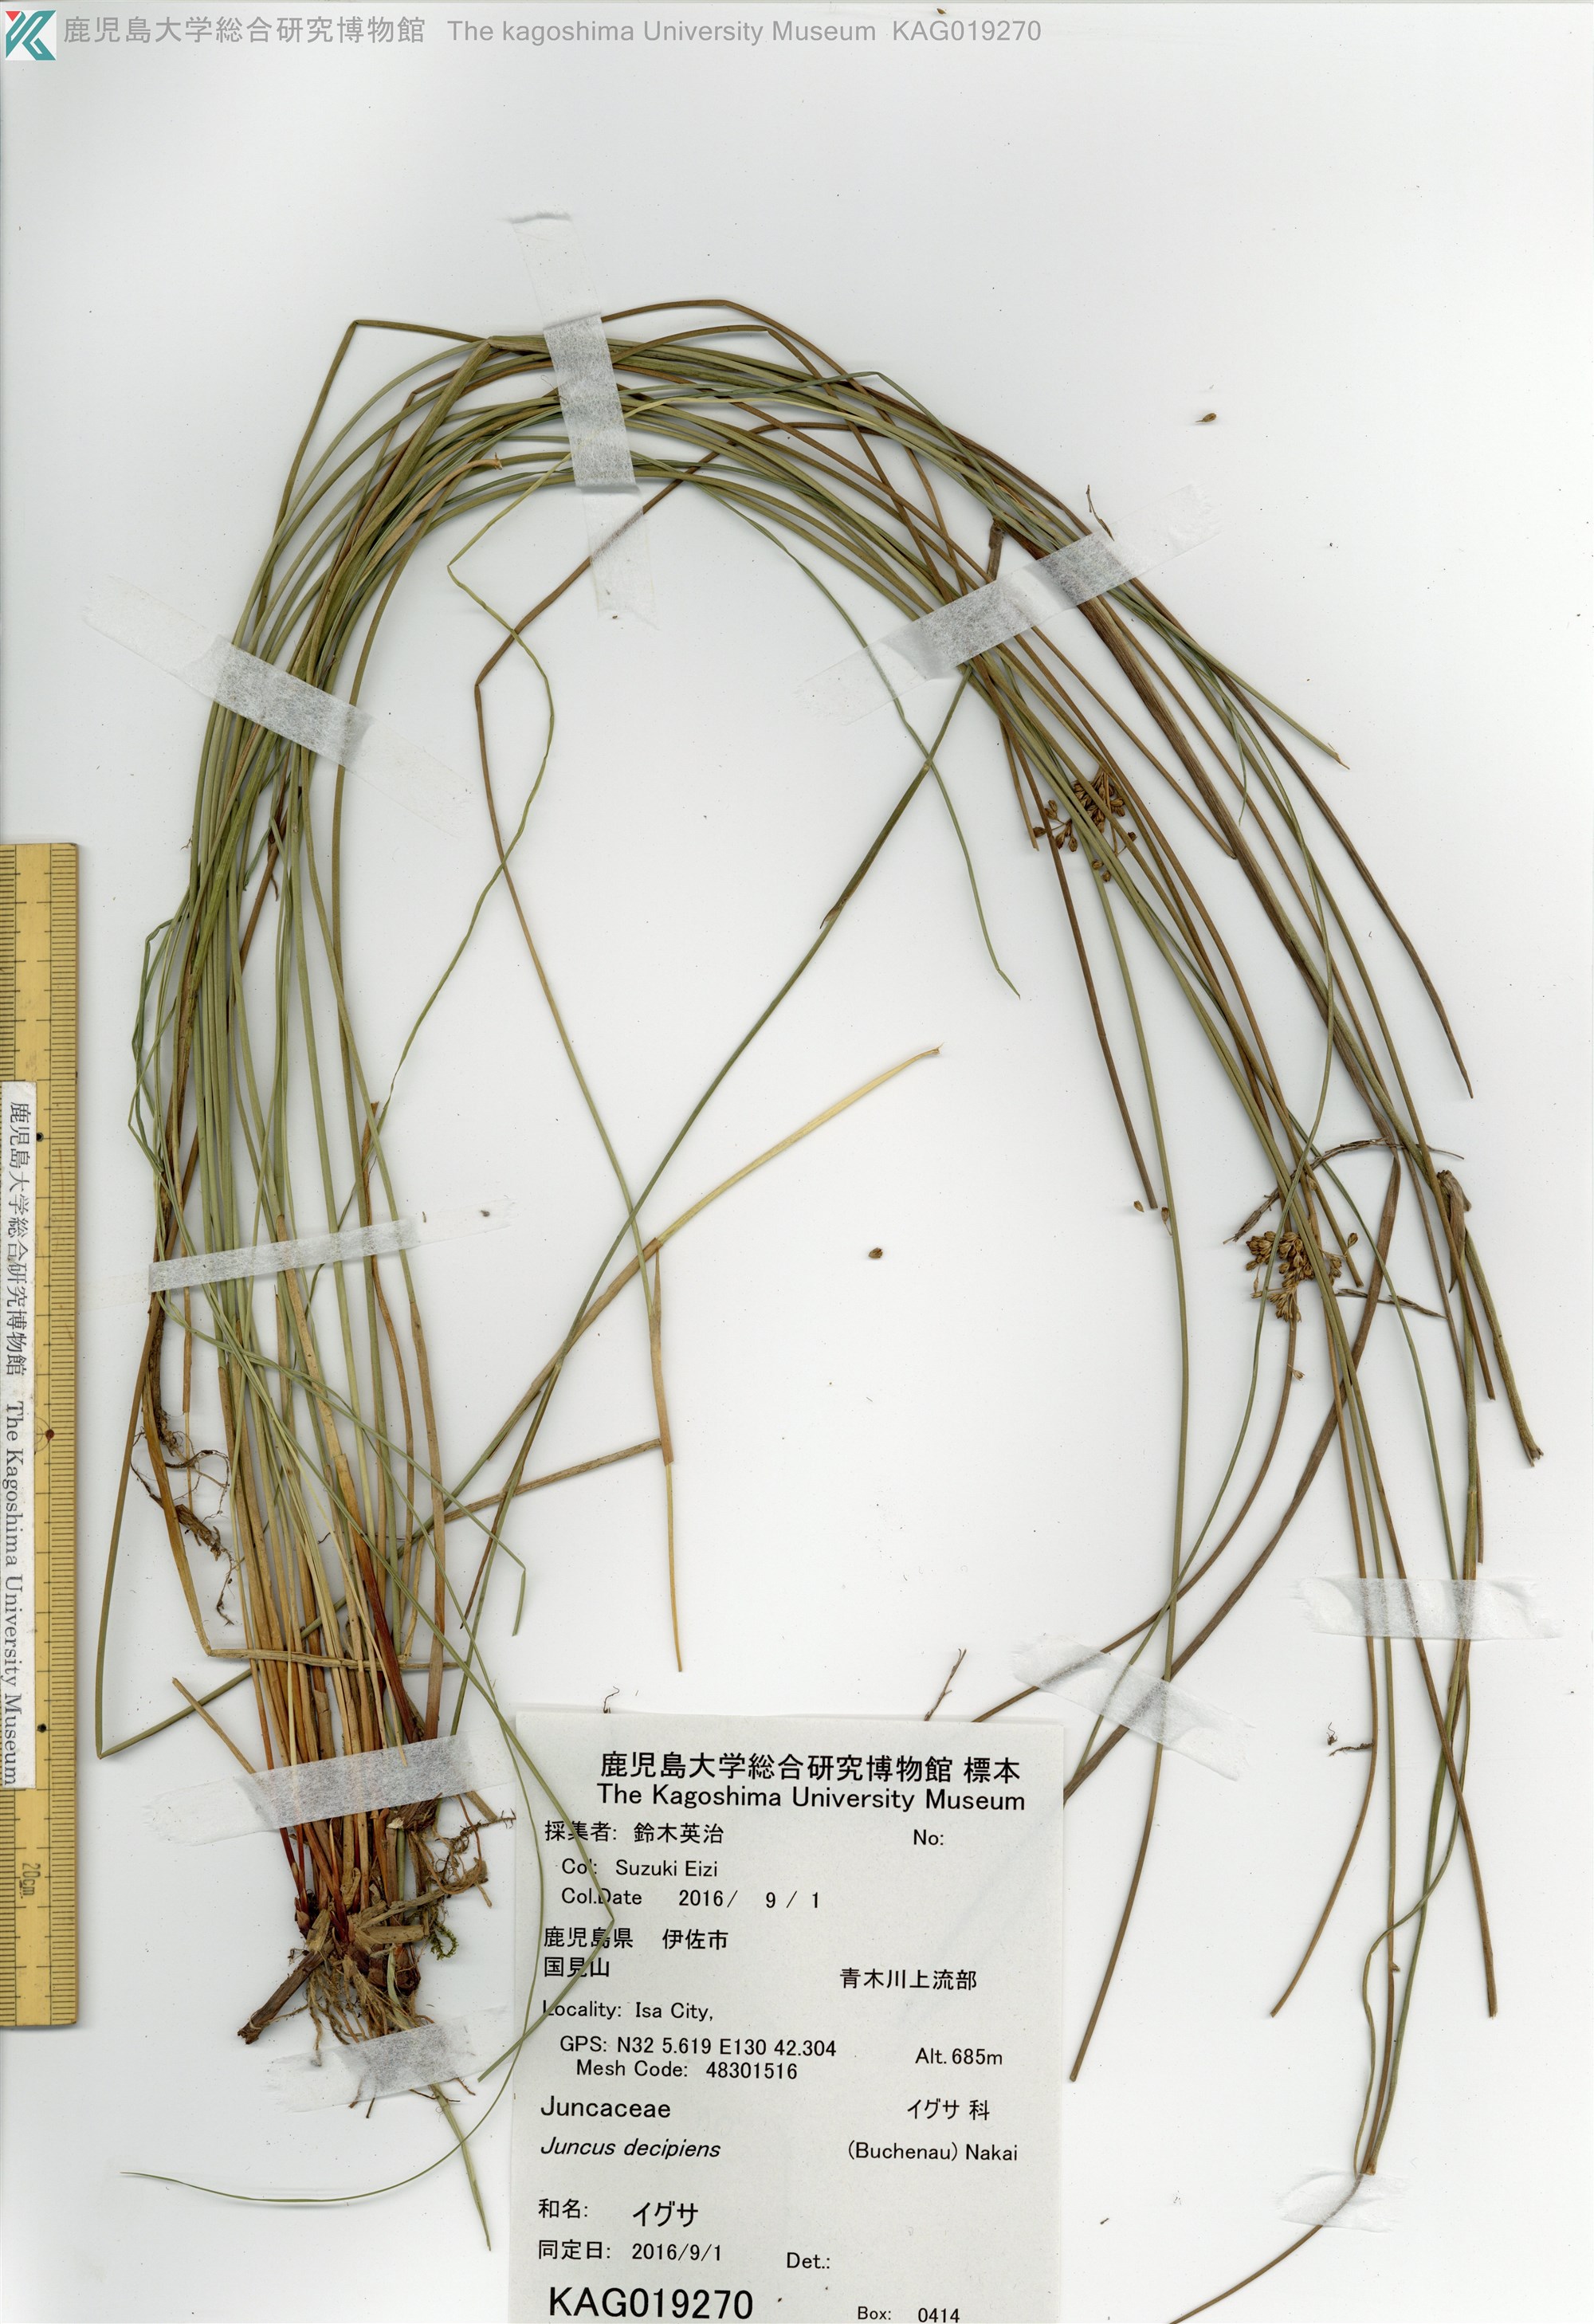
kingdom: Plantae
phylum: Tracheophyta
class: Liliopsida
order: Poales
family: Juncaceae
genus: Juncus
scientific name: Juncus decipiens
